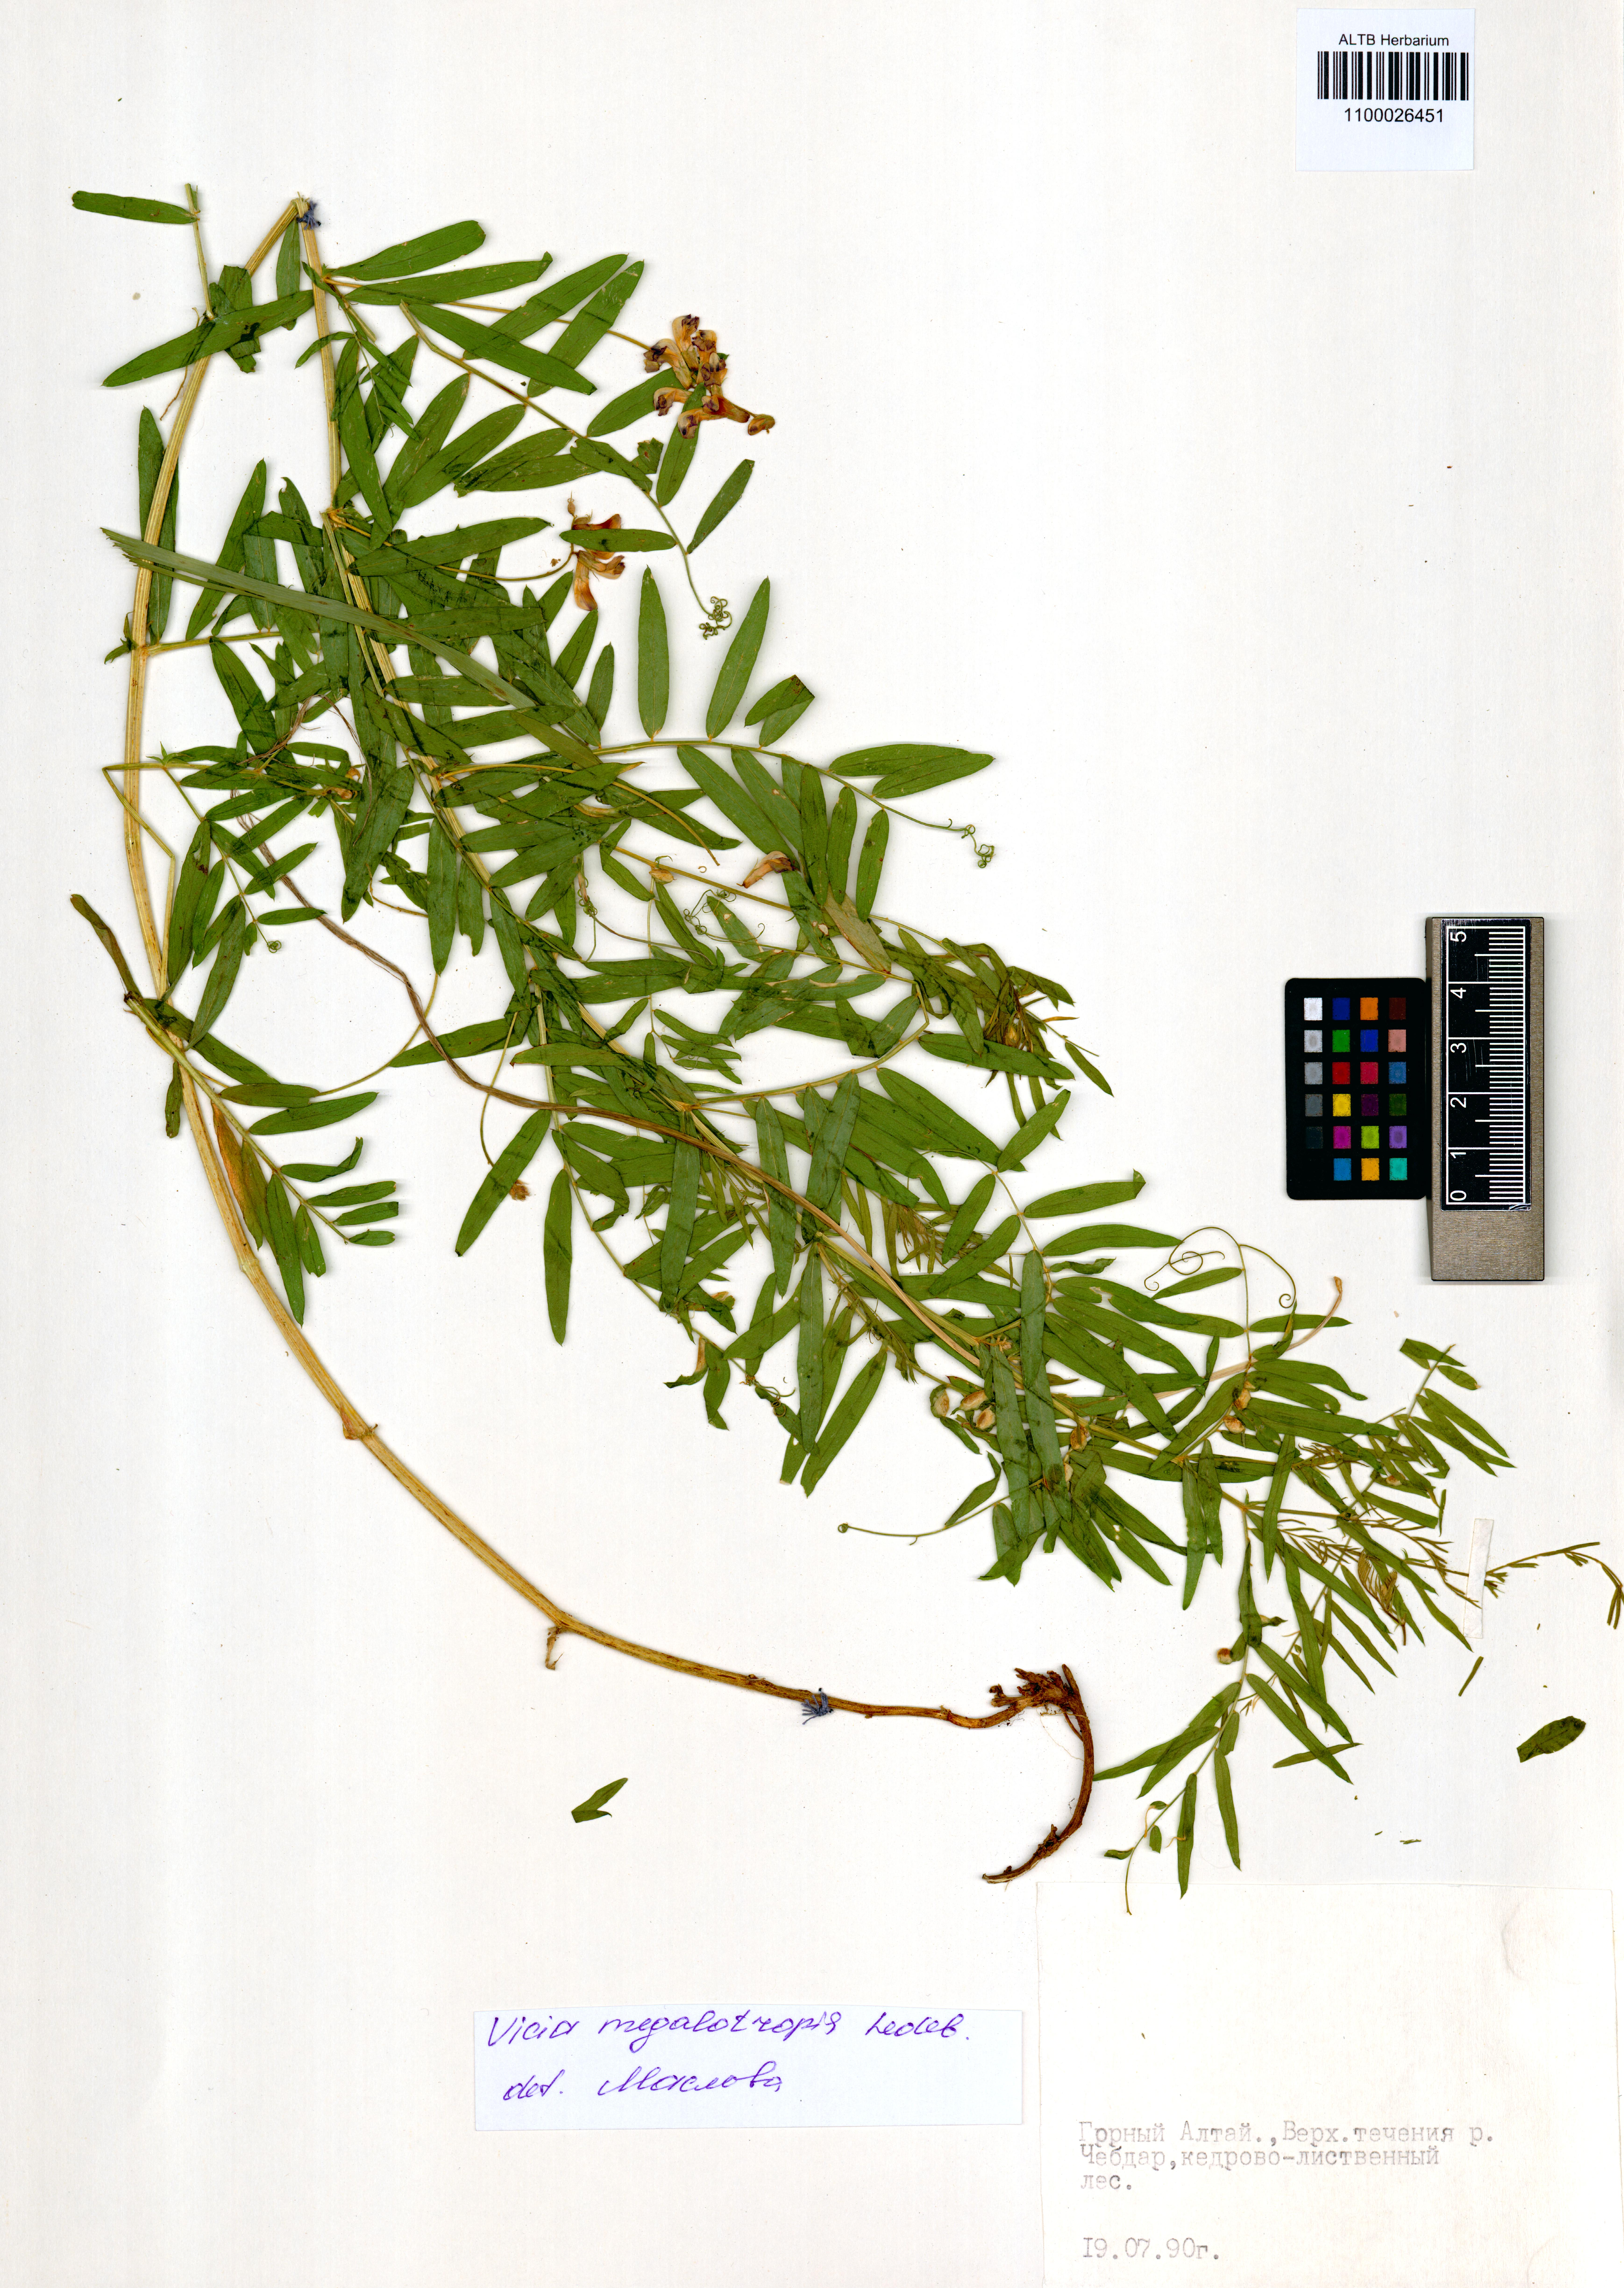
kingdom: Plantae
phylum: Tracheophyta
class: Magnoliopsida
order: Fabales
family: Fabaceae
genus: Vicia
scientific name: Vicia megalotropis
